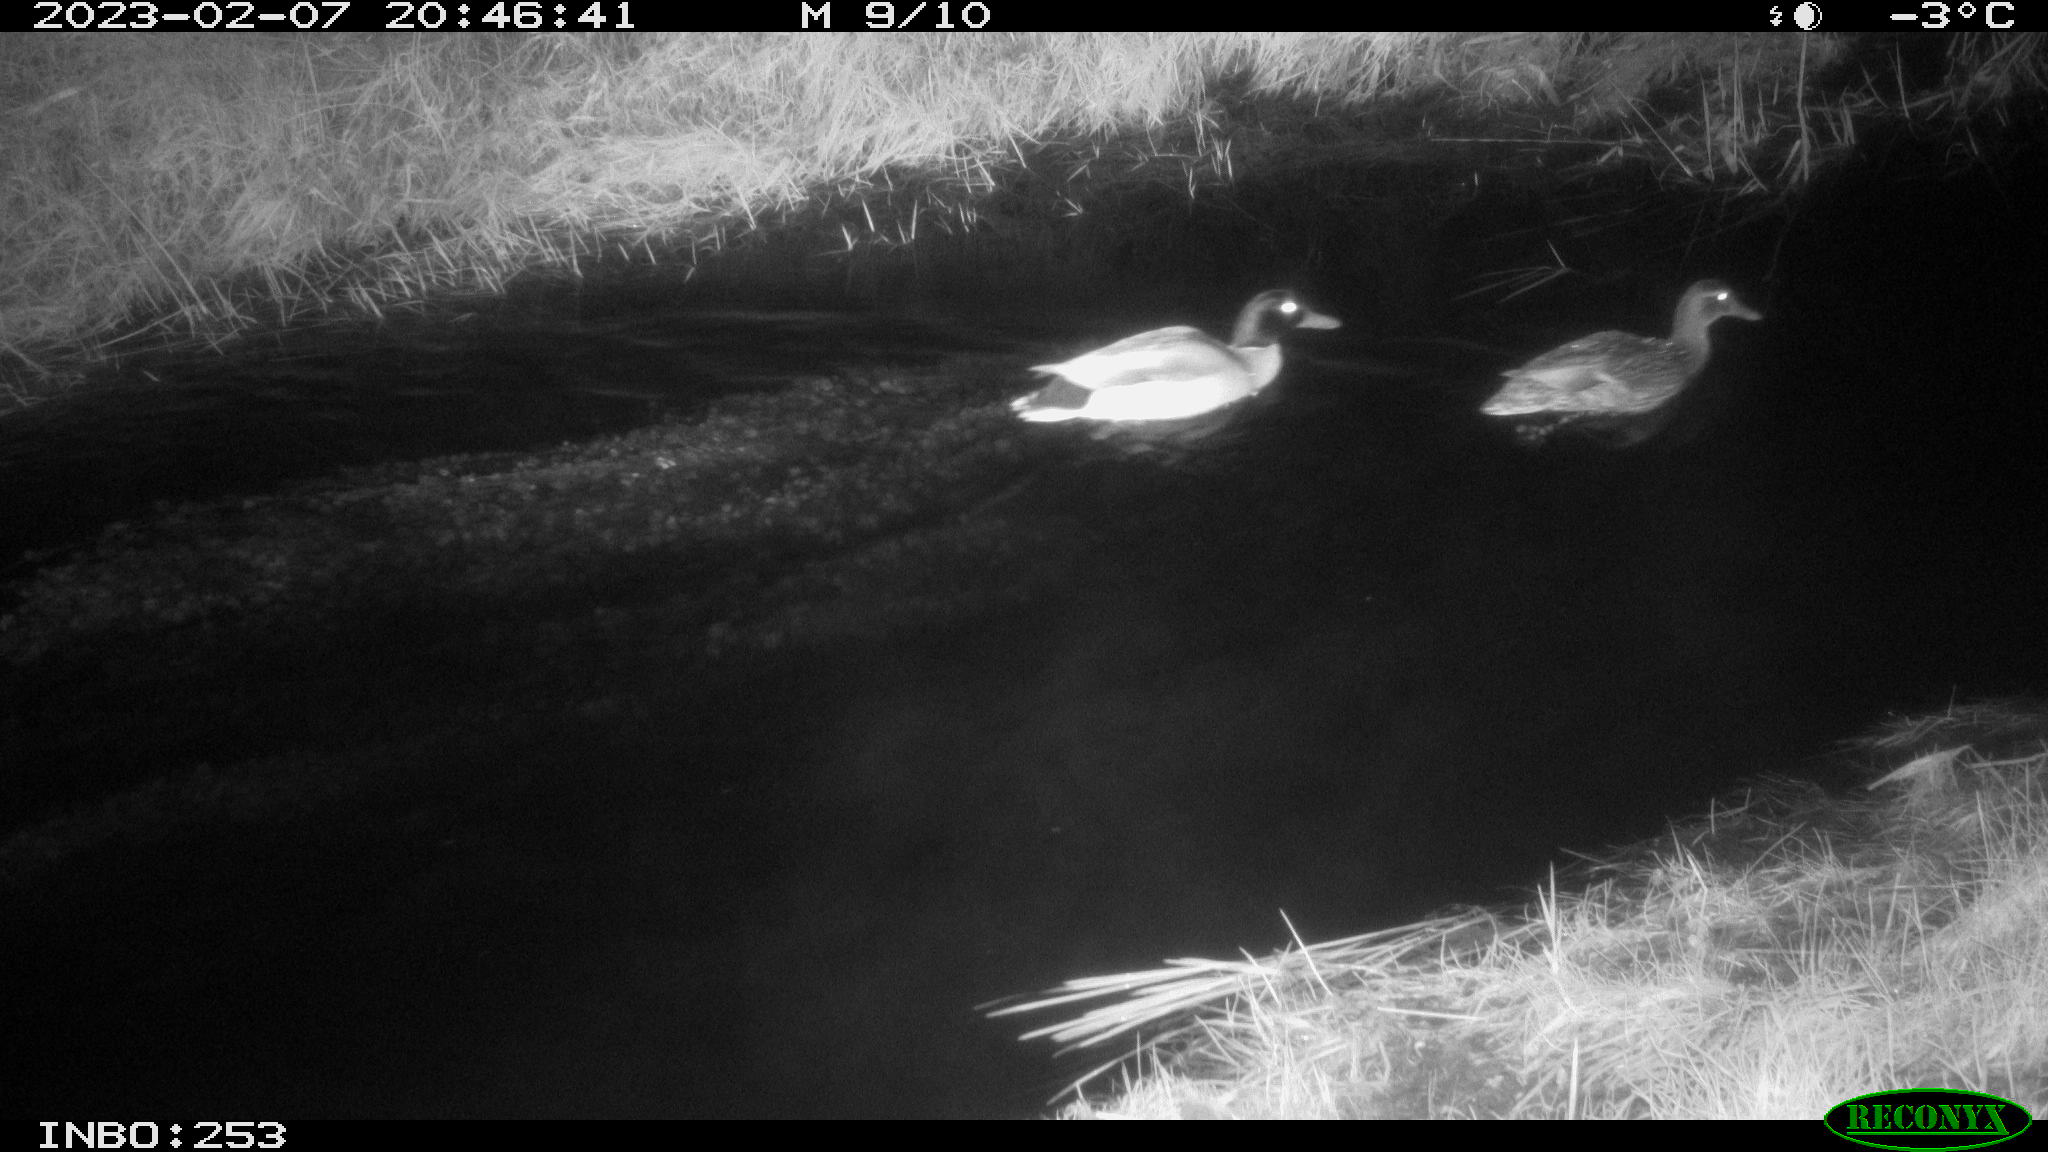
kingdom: Animalia
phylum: Chordata
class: Aves
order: Anseriformes
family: Anatidae
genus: Anas
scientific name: Anas
